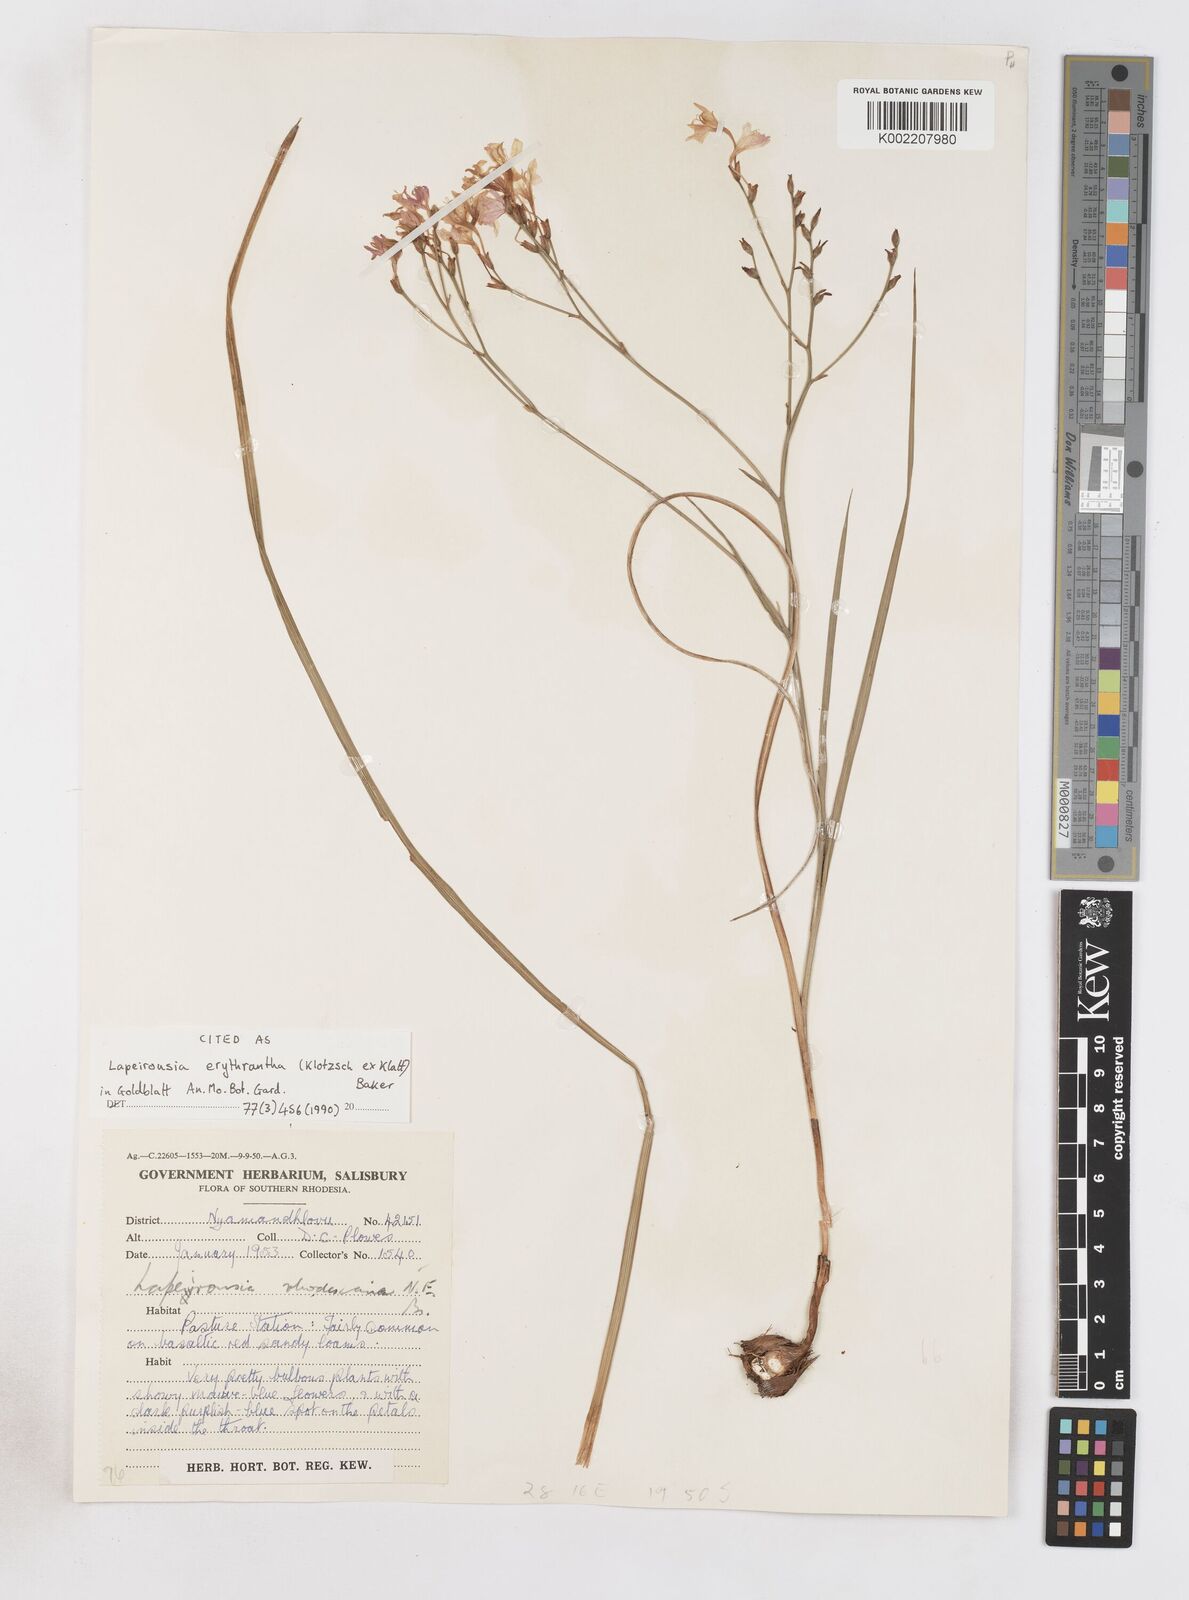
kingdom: Plantae
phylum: Tracheophyta
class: Liliopsida
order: Asparagales
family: Iridaceae
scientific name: Iridaceae
